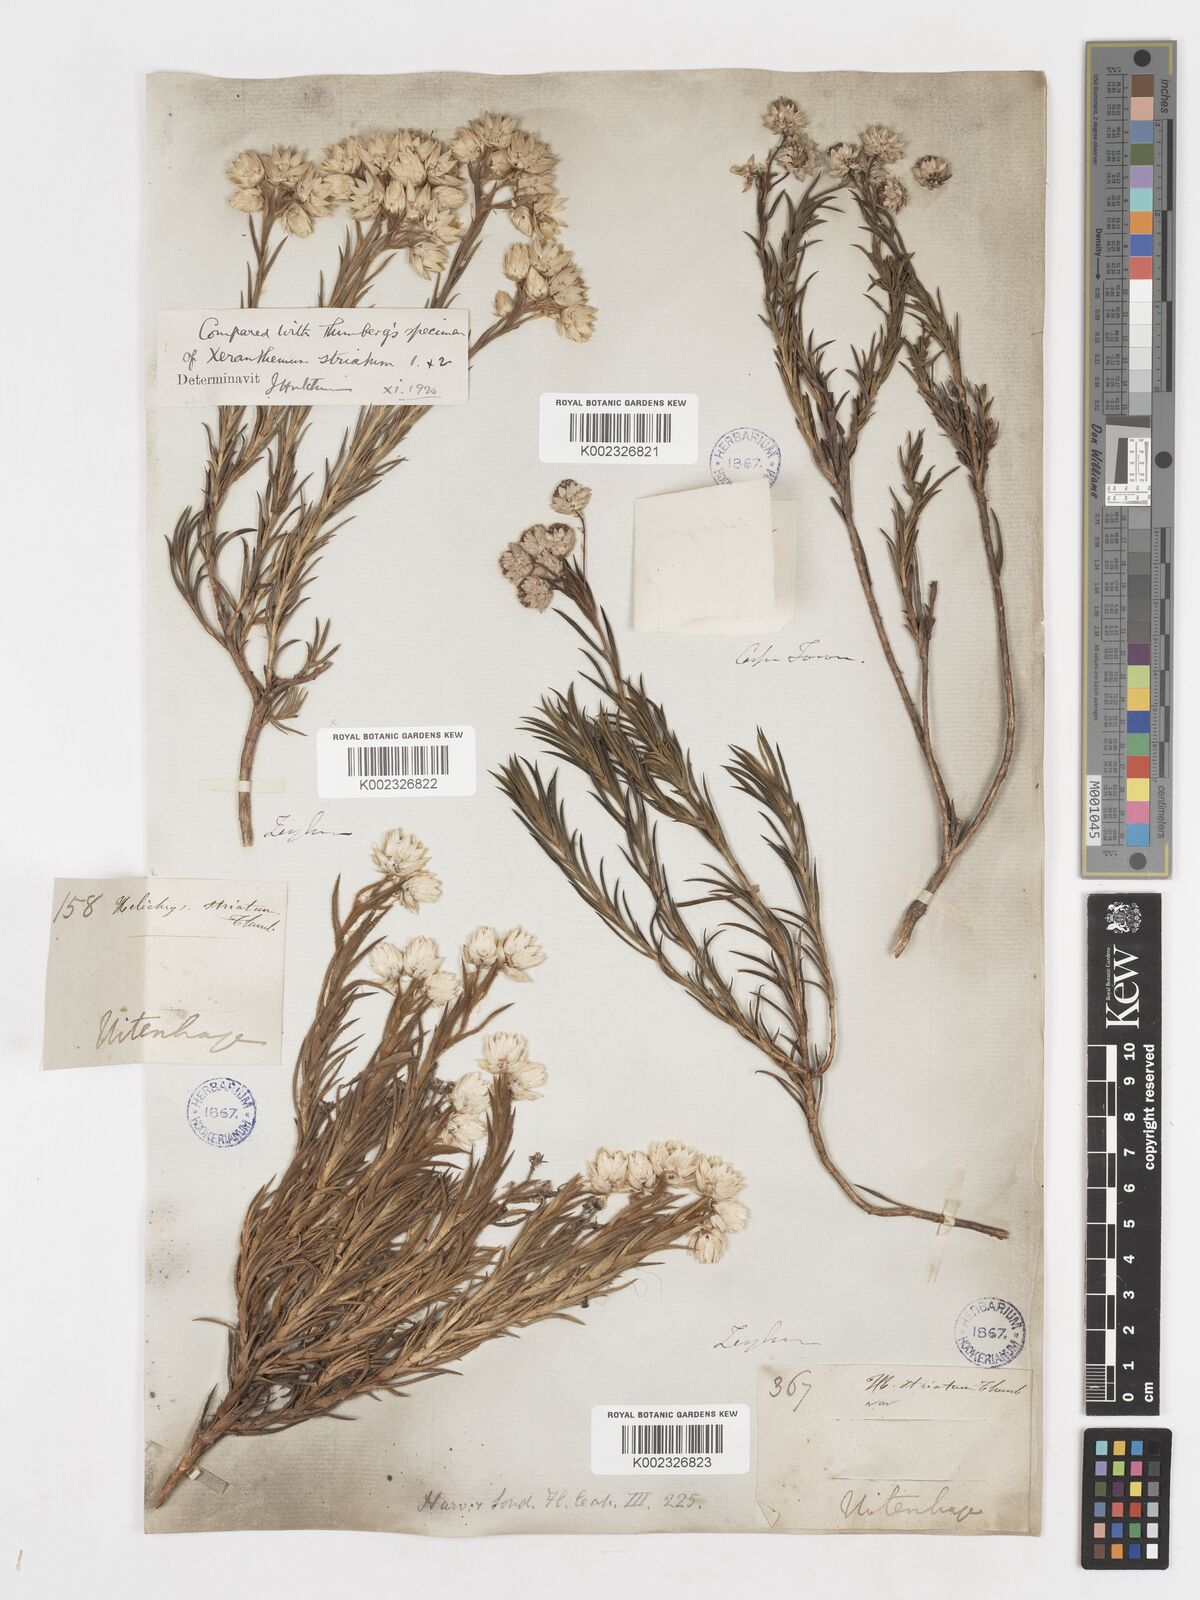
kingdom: Plantae
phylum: Tracheophyta
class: Magnoliopsida
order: Asterales
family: Asteraceae
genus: Achyranthemum
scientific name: Achyranthemum striatum
